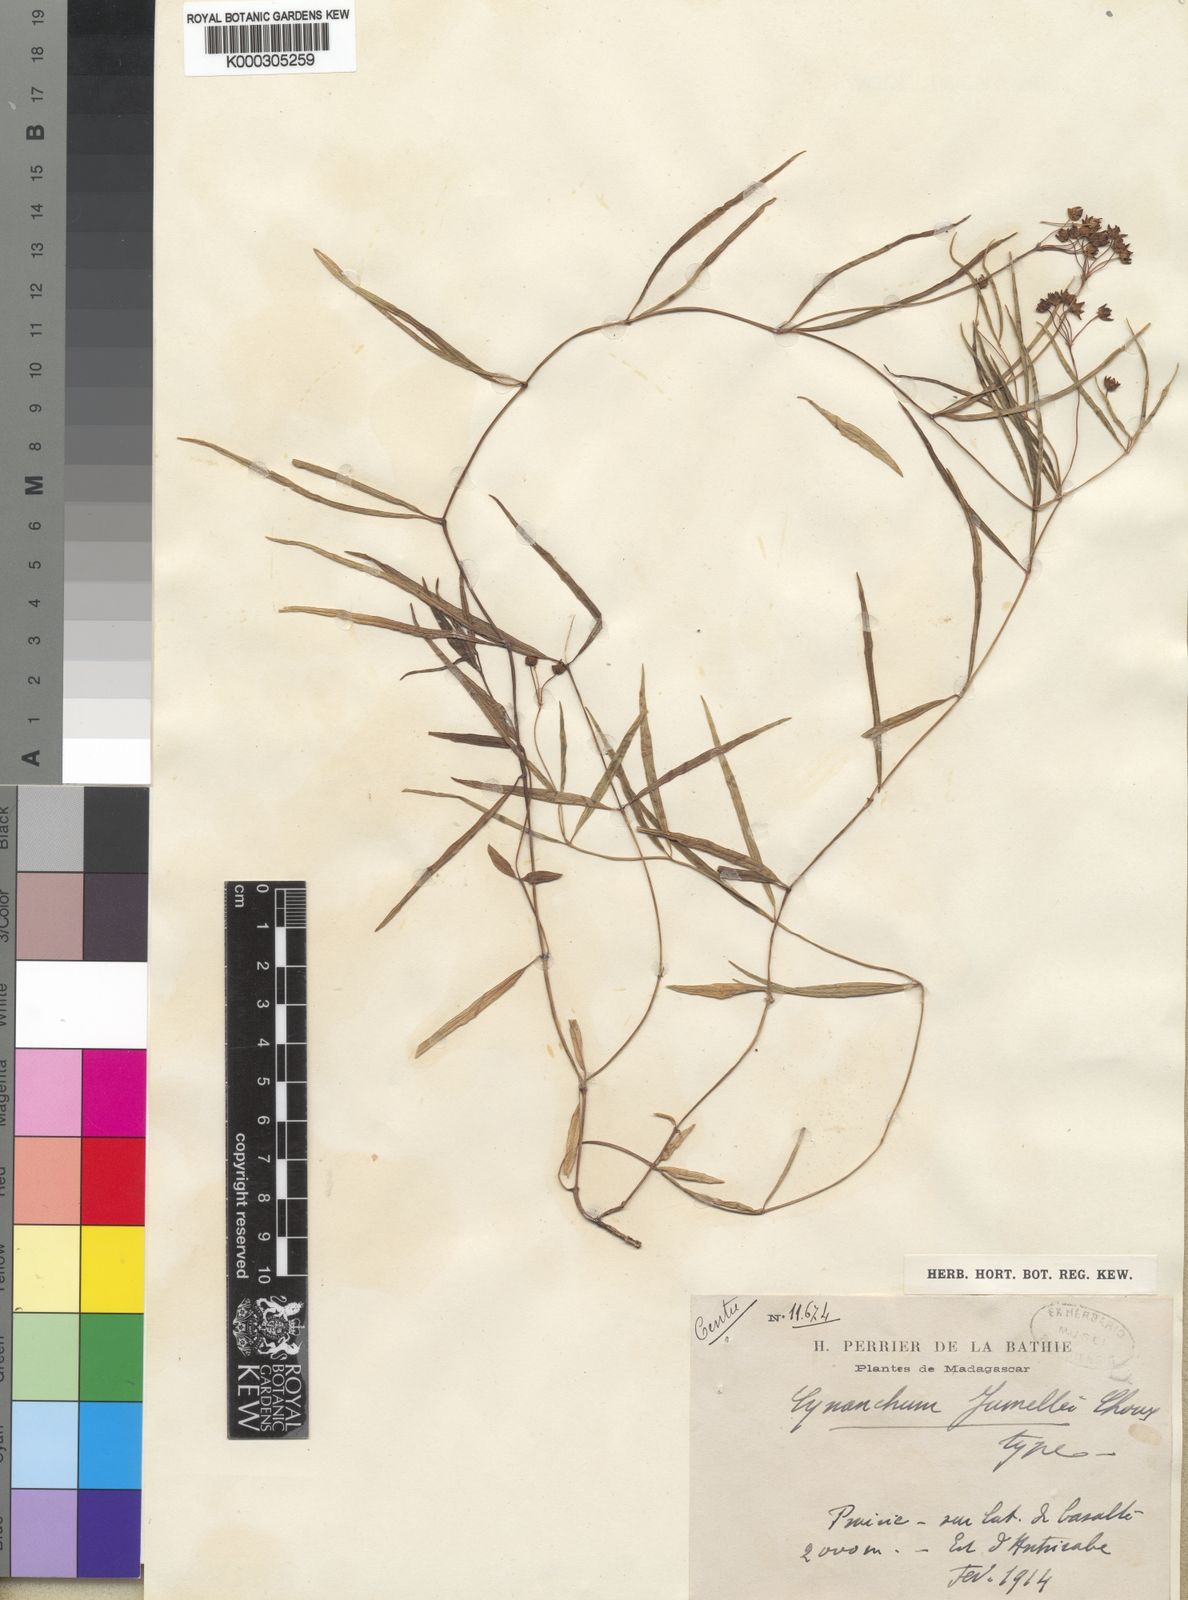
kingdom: Plantae
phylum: Tracheophyta
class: Magnoliopsida
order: Gentianales
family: Apocynaceae
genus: Cynanchum
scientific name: Cynanchum jumellei
